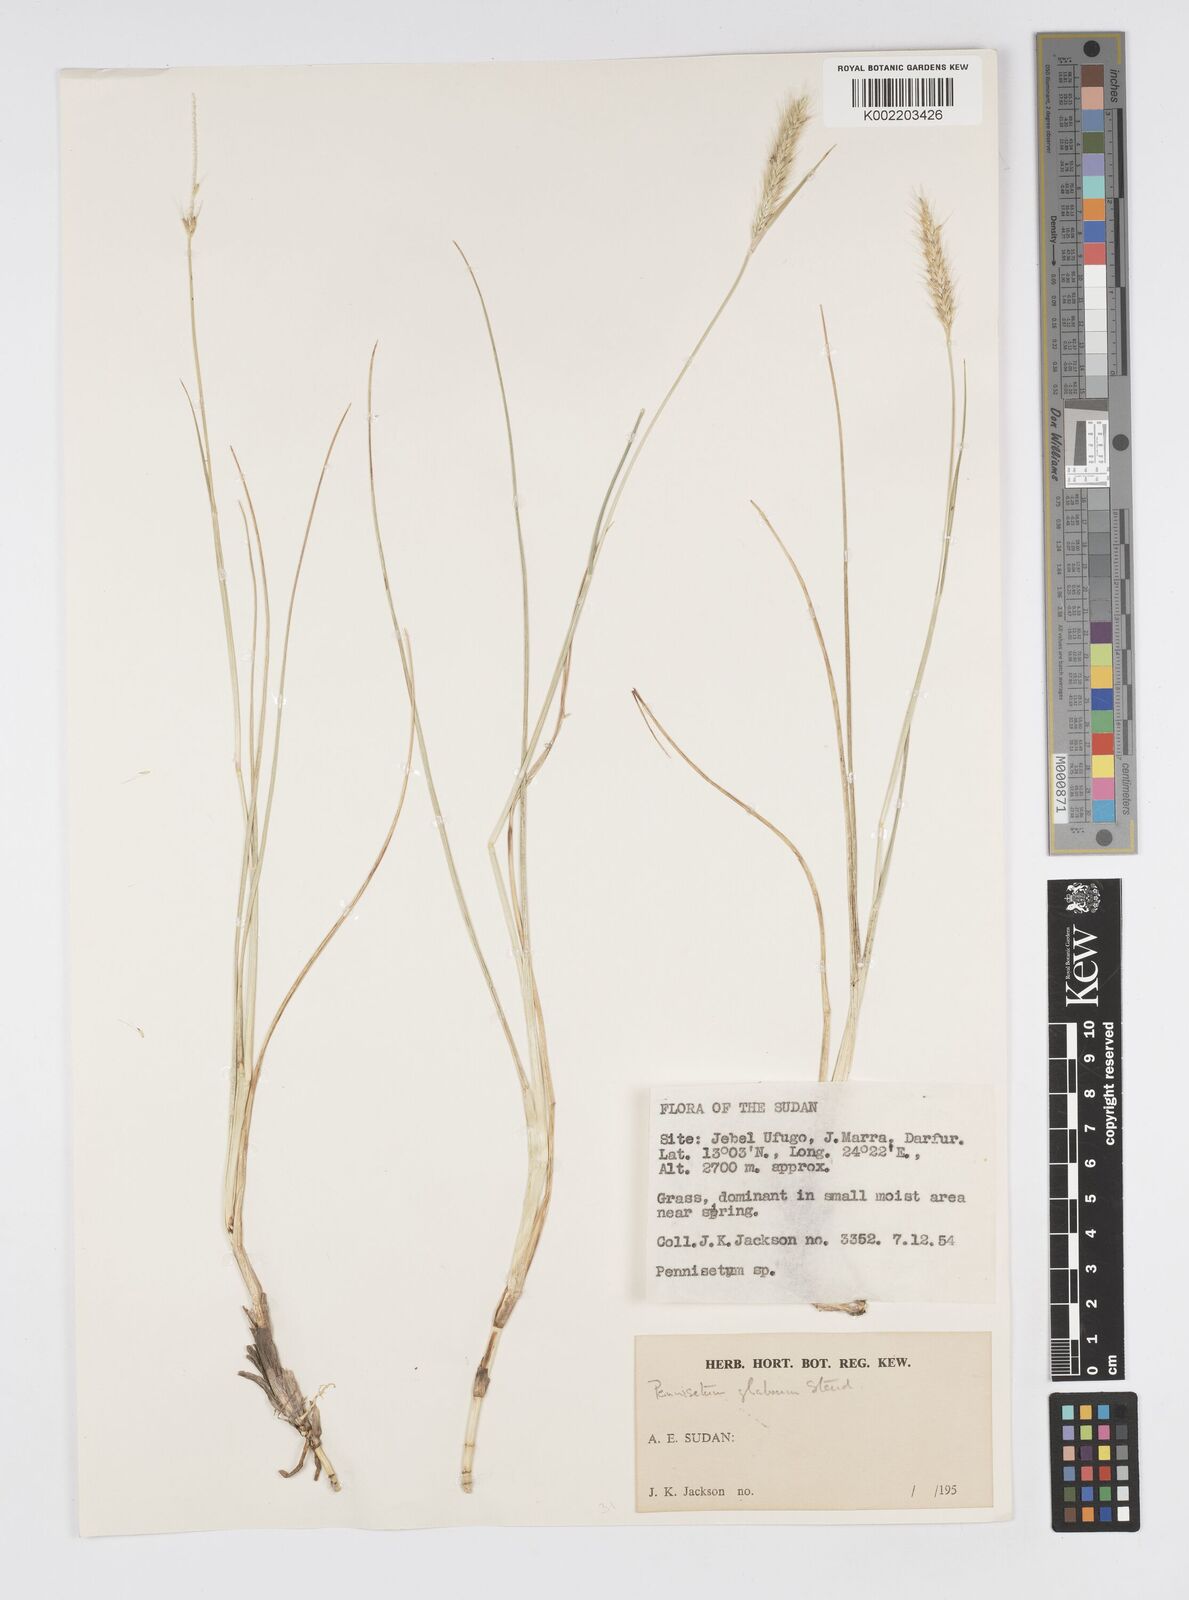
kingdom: Plantae
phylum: Tracheophyta
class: Liliopsida
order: Poales
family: Poaceae
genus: Cenchrus
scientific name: Cenchrus geniculatus
